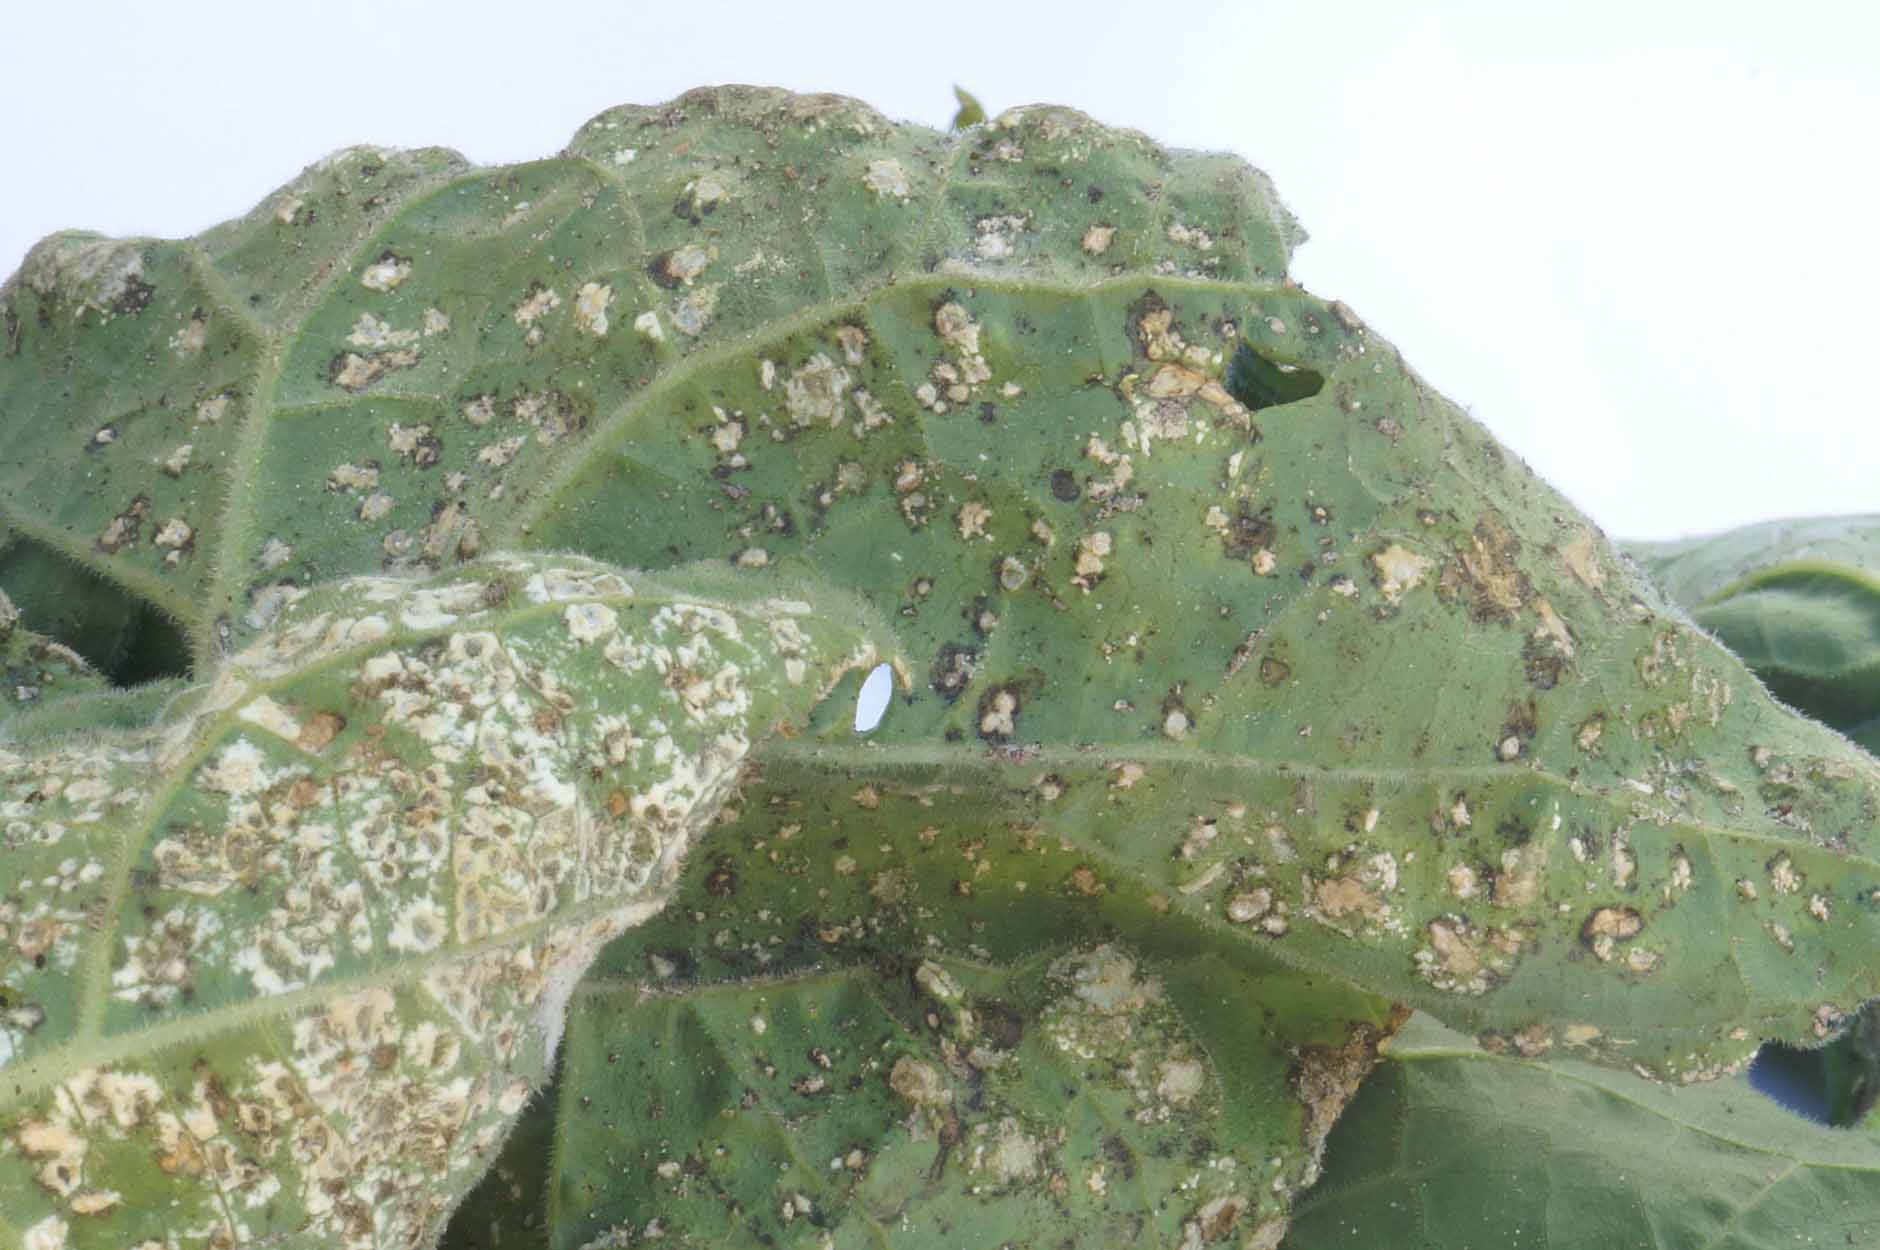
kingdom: Chromista
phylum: Oomycota
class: Peronosporea
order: Albuginales
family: Albuginaceae
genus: Albugo
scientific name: Albugo candida
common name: Crucifer white blister
